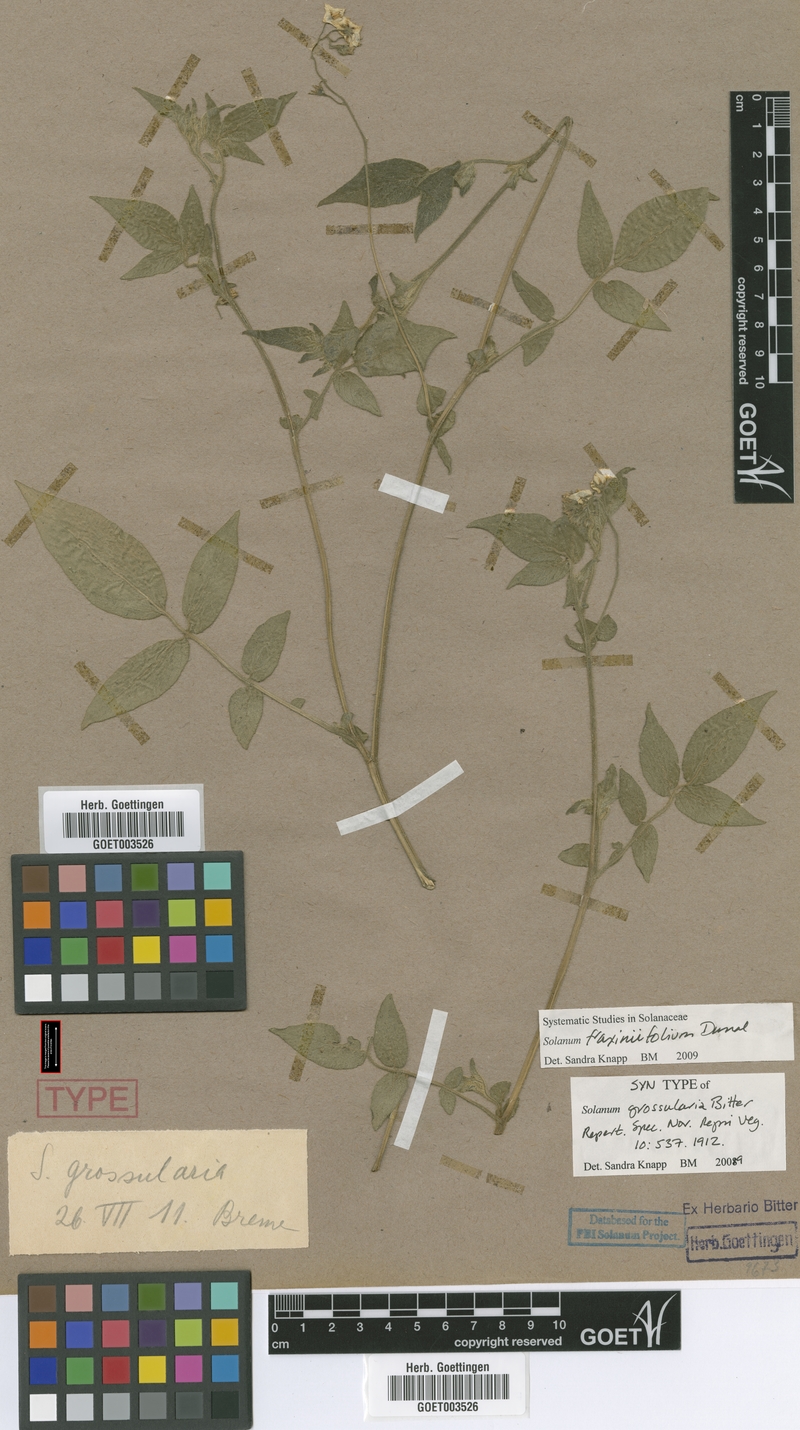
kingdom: Plantae
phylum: Tracheophyta
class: Magnoliopsida
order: Solanales
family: Solanaceae
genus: Solanum
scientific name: Solanum fraxinifolium
